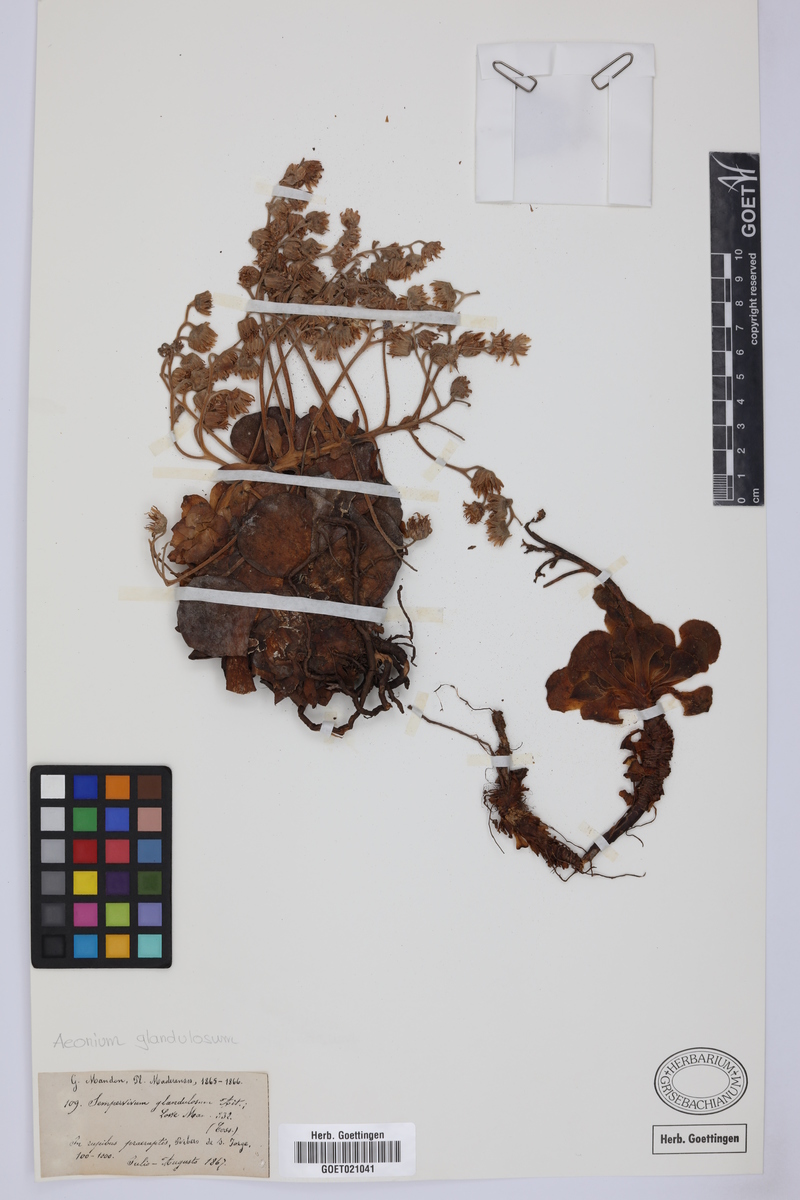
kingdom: Plantae
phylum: Tracheophyta
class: Magnoliopsida
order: Saxifragales
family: Crassulaceae
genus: Aeonium
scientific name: Aeonium glandulosum
